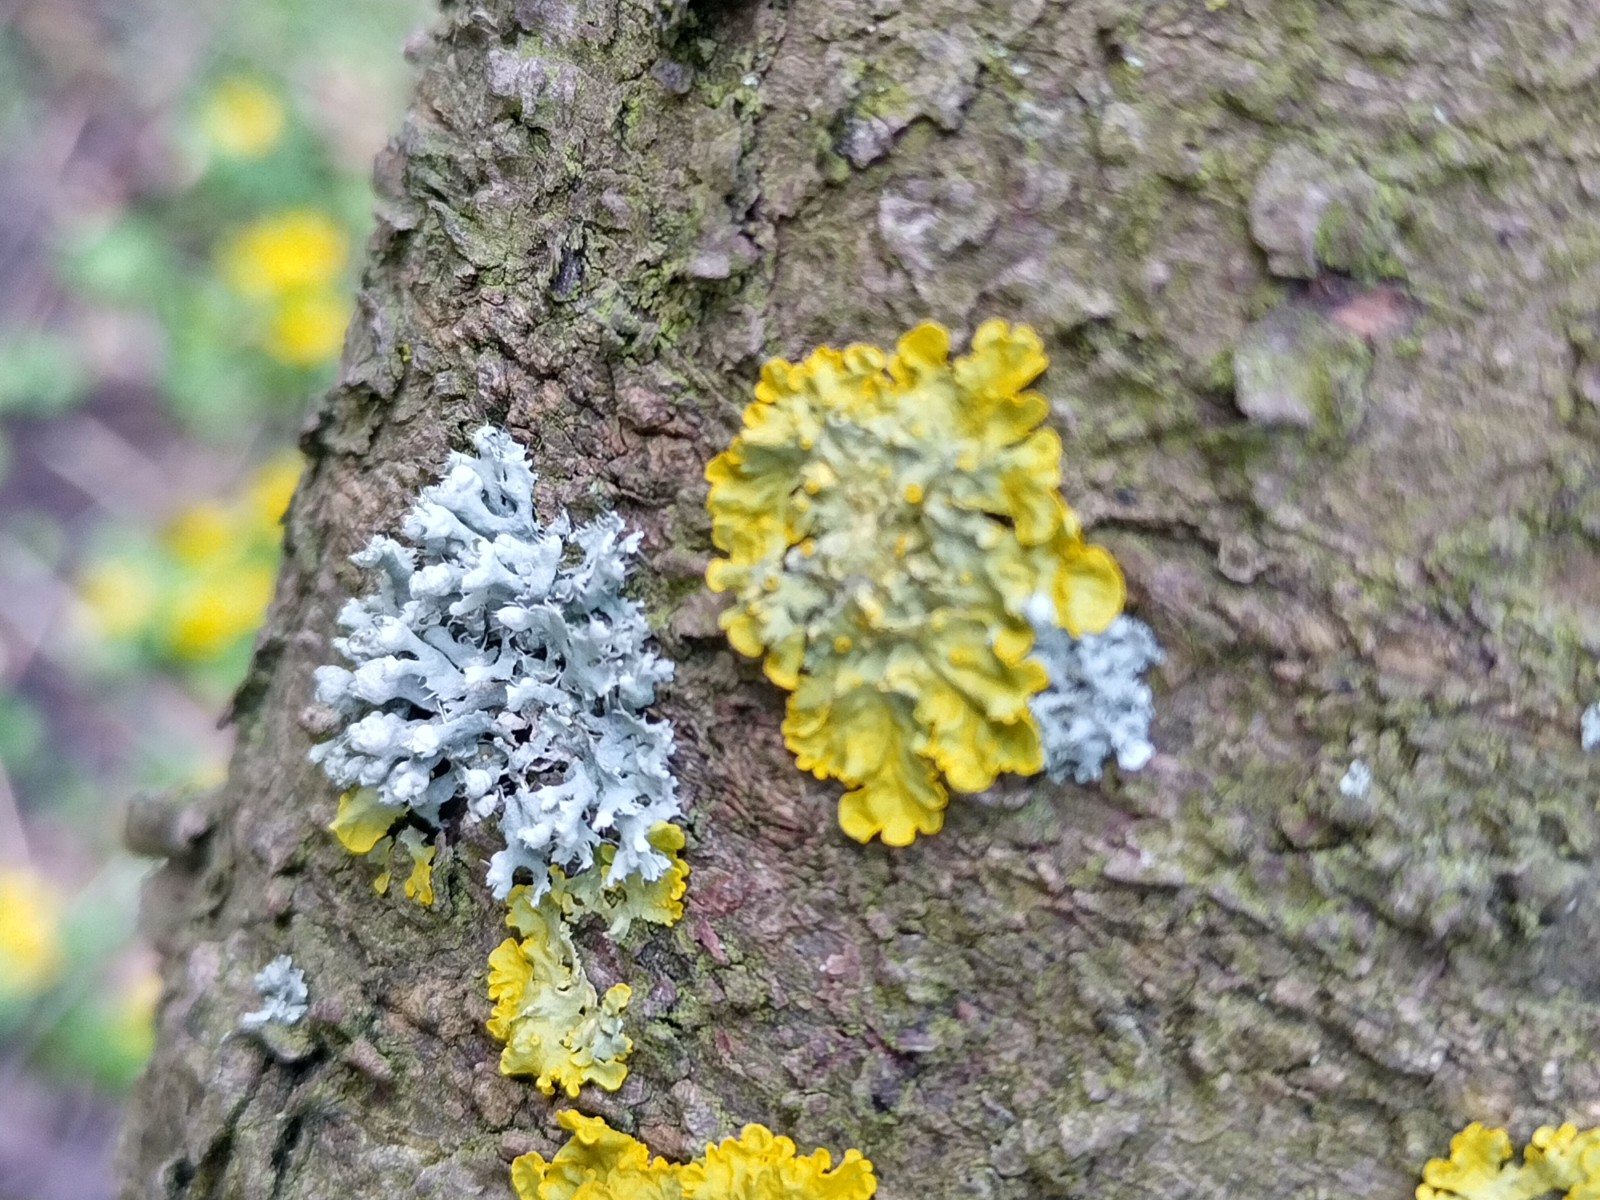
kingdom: Fungi
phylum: Ascomycota
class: Lecanoromycetes
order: Teloschistales
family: Teloschistaceae
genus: Xanthoria
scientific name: Xanthoria parietina
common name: almindelig væggelav
